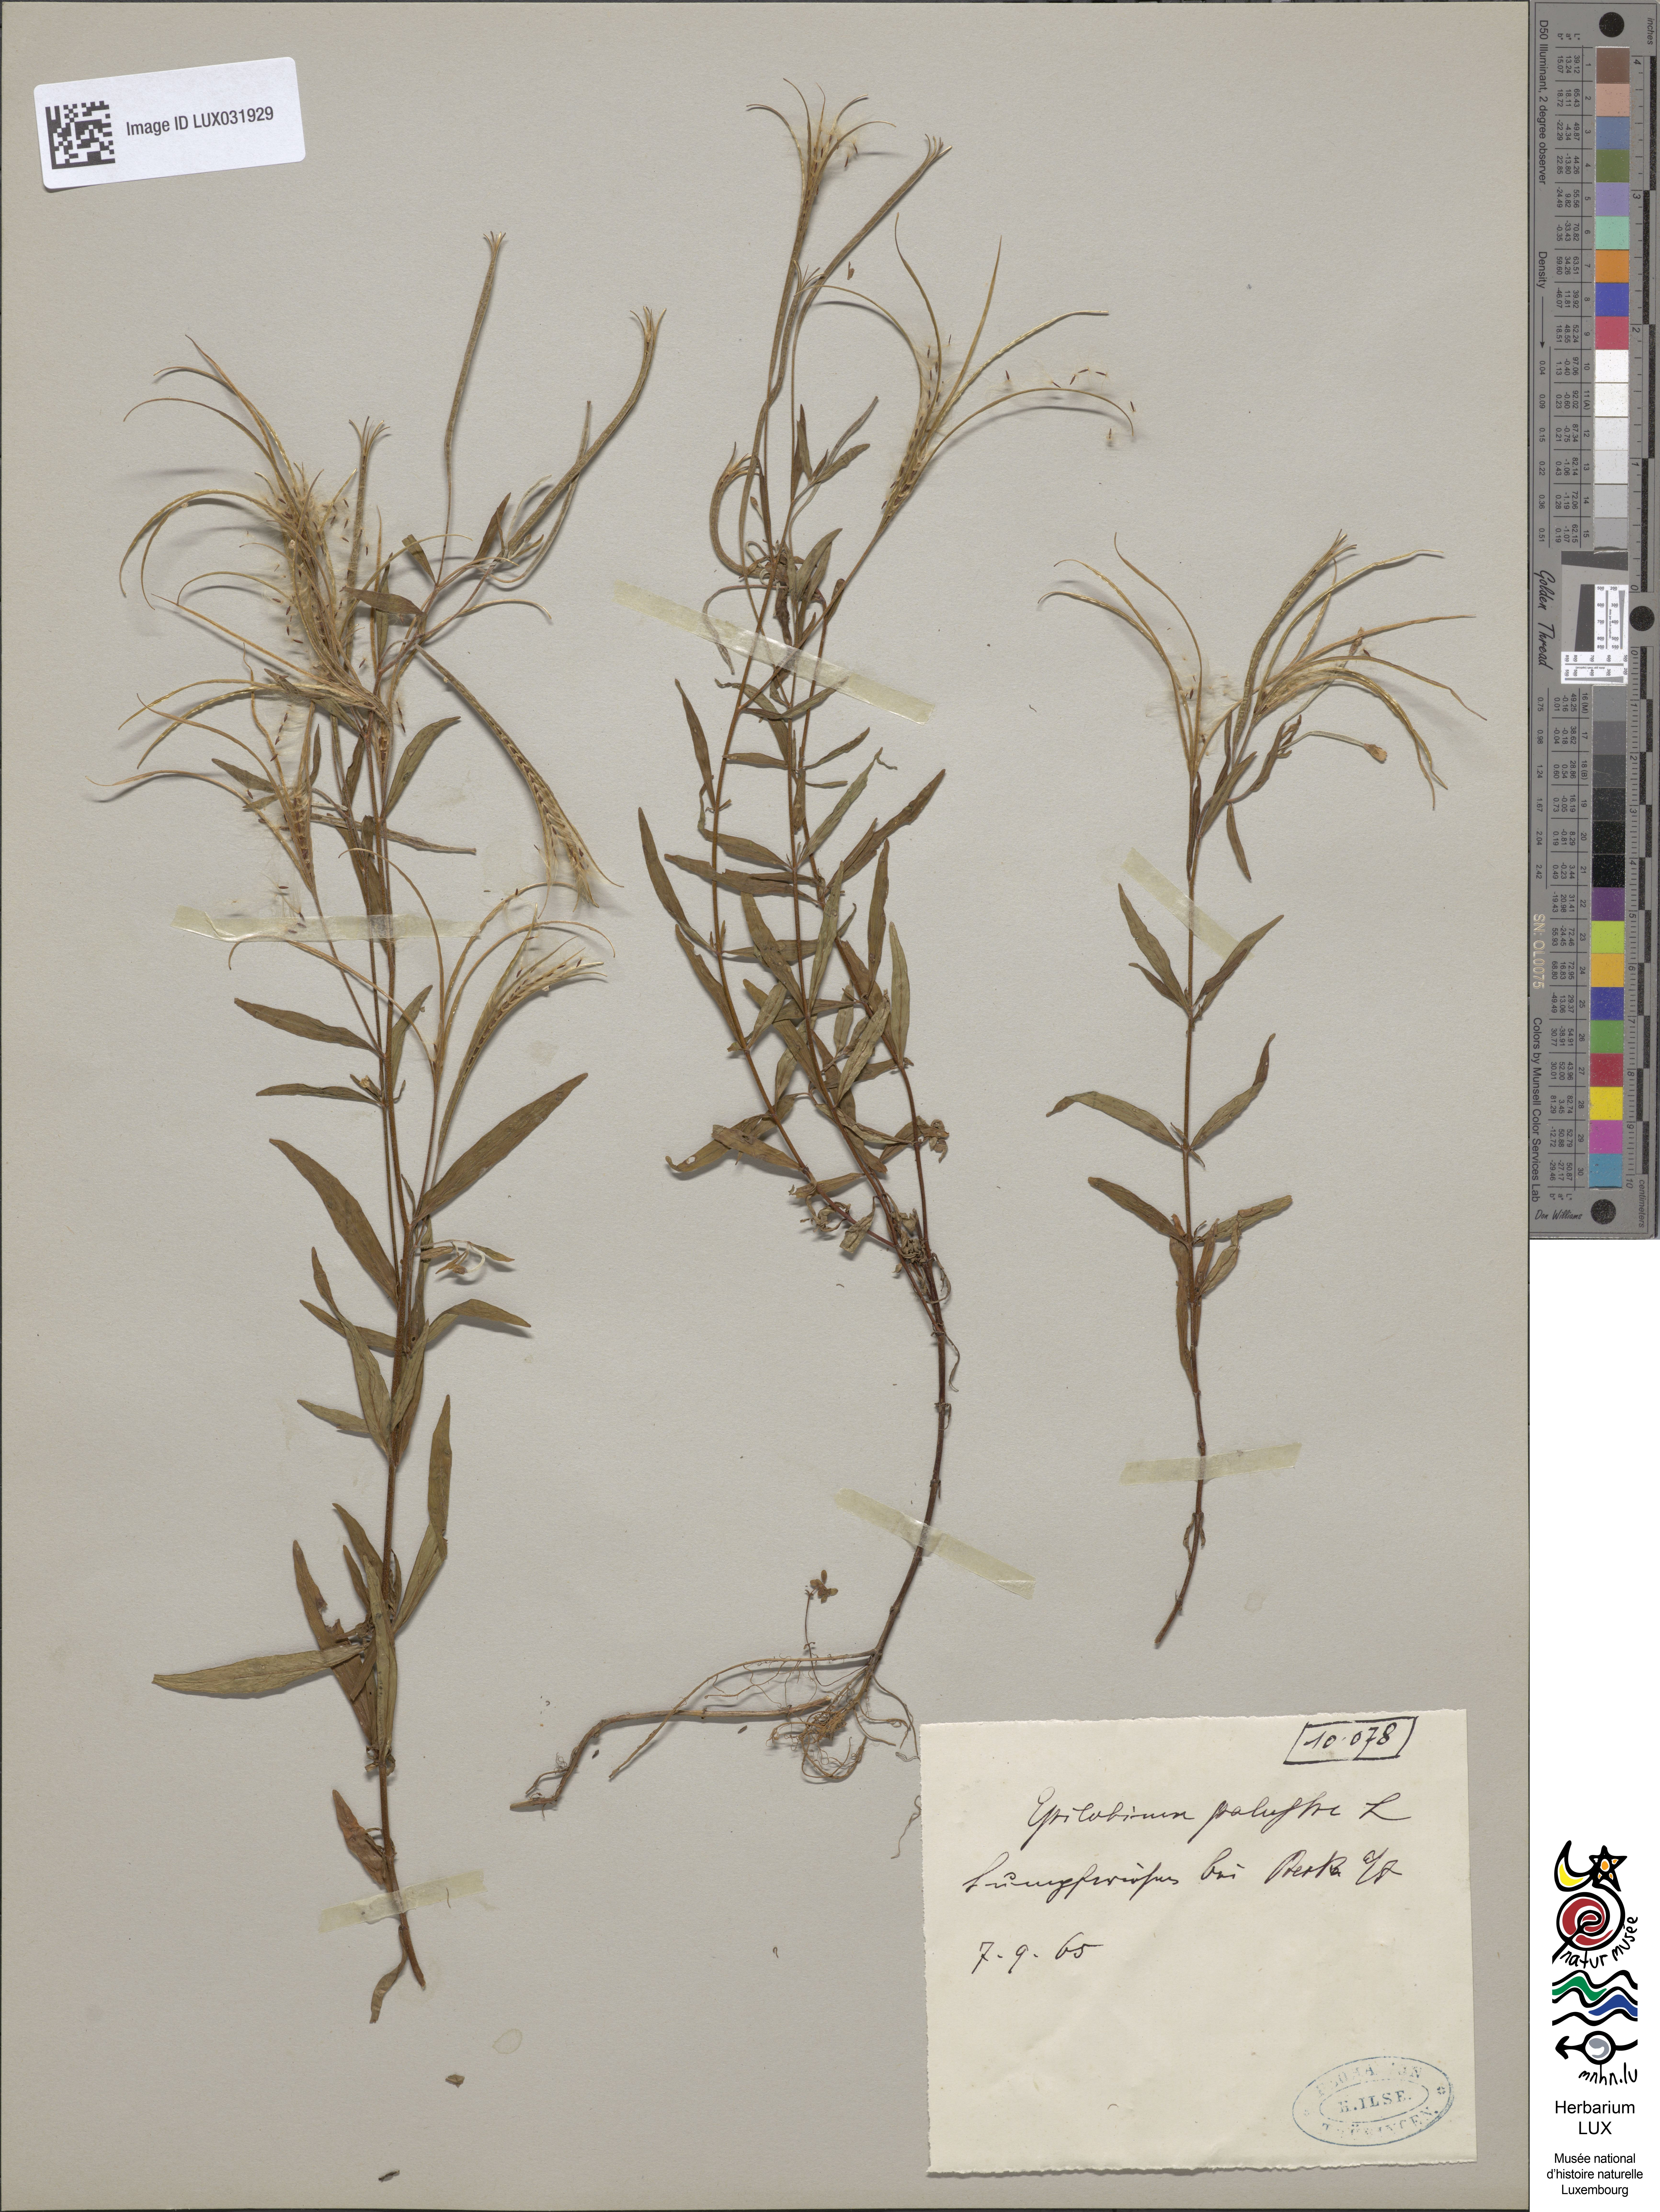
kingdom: Plantae
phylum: Tracheophyta
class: Magnoliopsida
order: Myrtales
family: Onagraceae
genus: Epilobium
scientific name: Epilobium palustre
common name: Marsh willowherb
